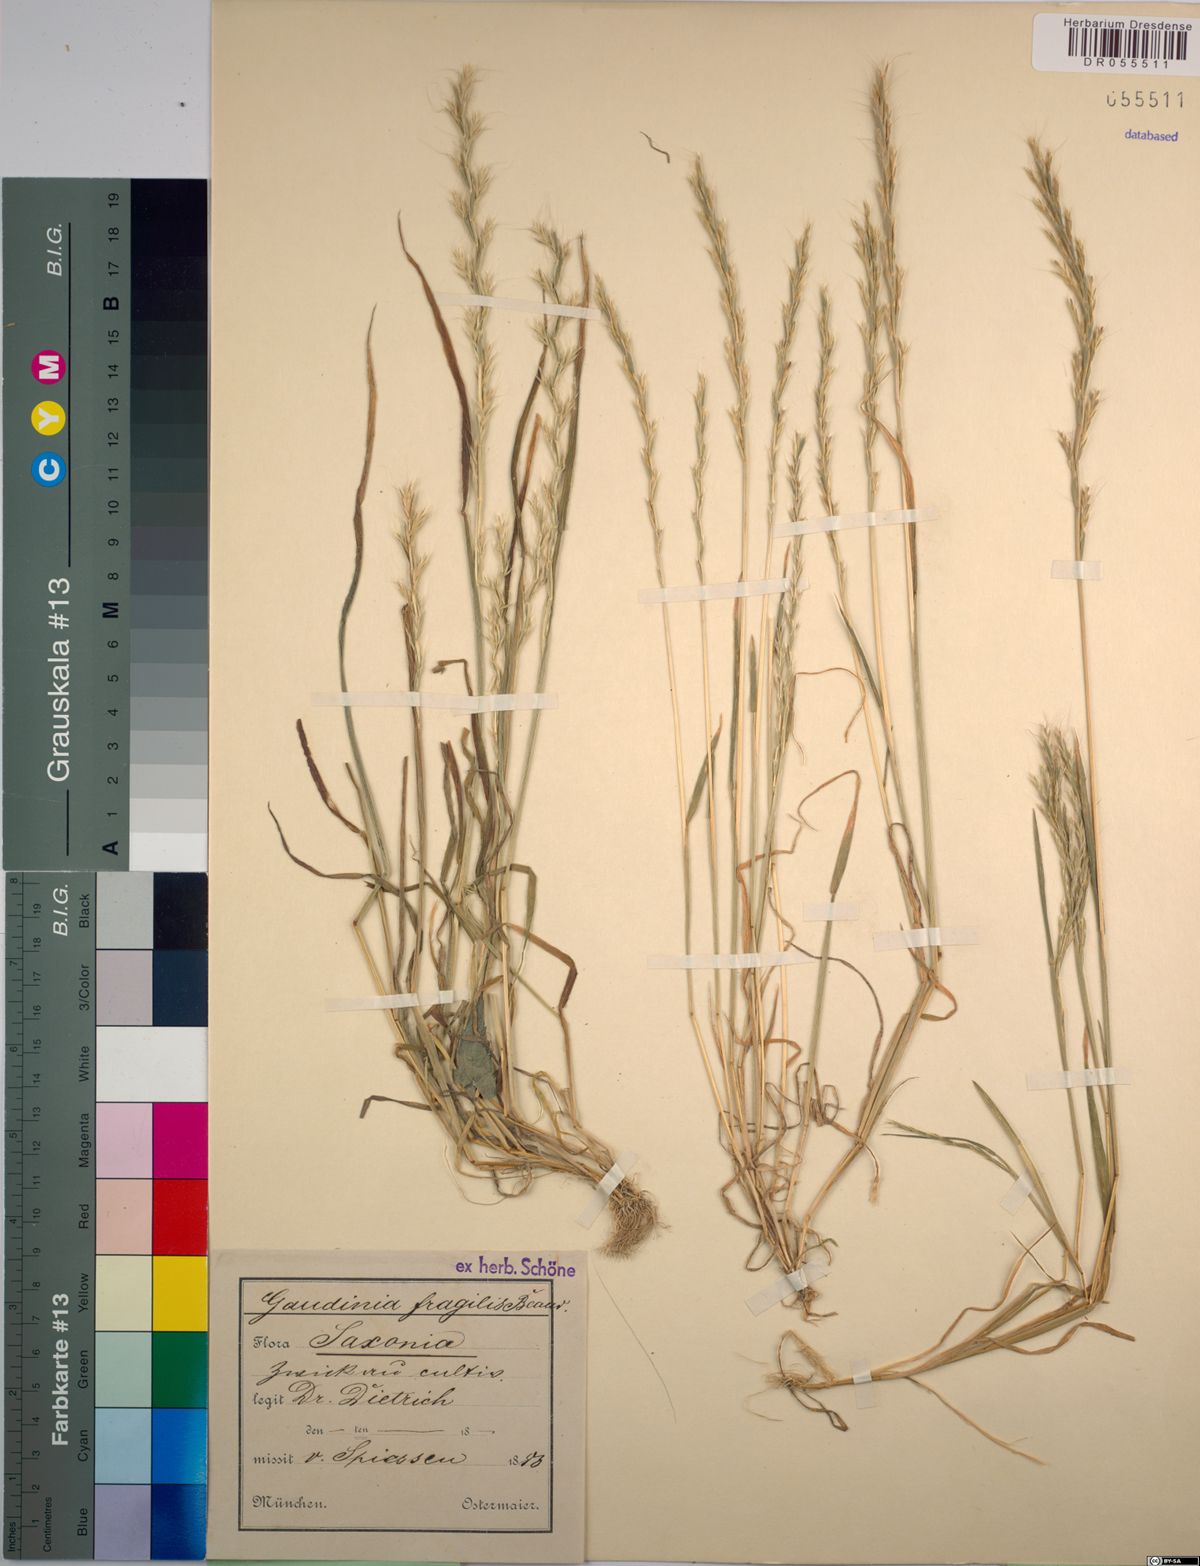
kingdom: Plantae
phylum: Tracheophyta
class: Liliopsida
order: Poales
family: Poaceae
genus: Gaudinia
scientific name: Gaudinia fragilis
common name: French oat-grass
